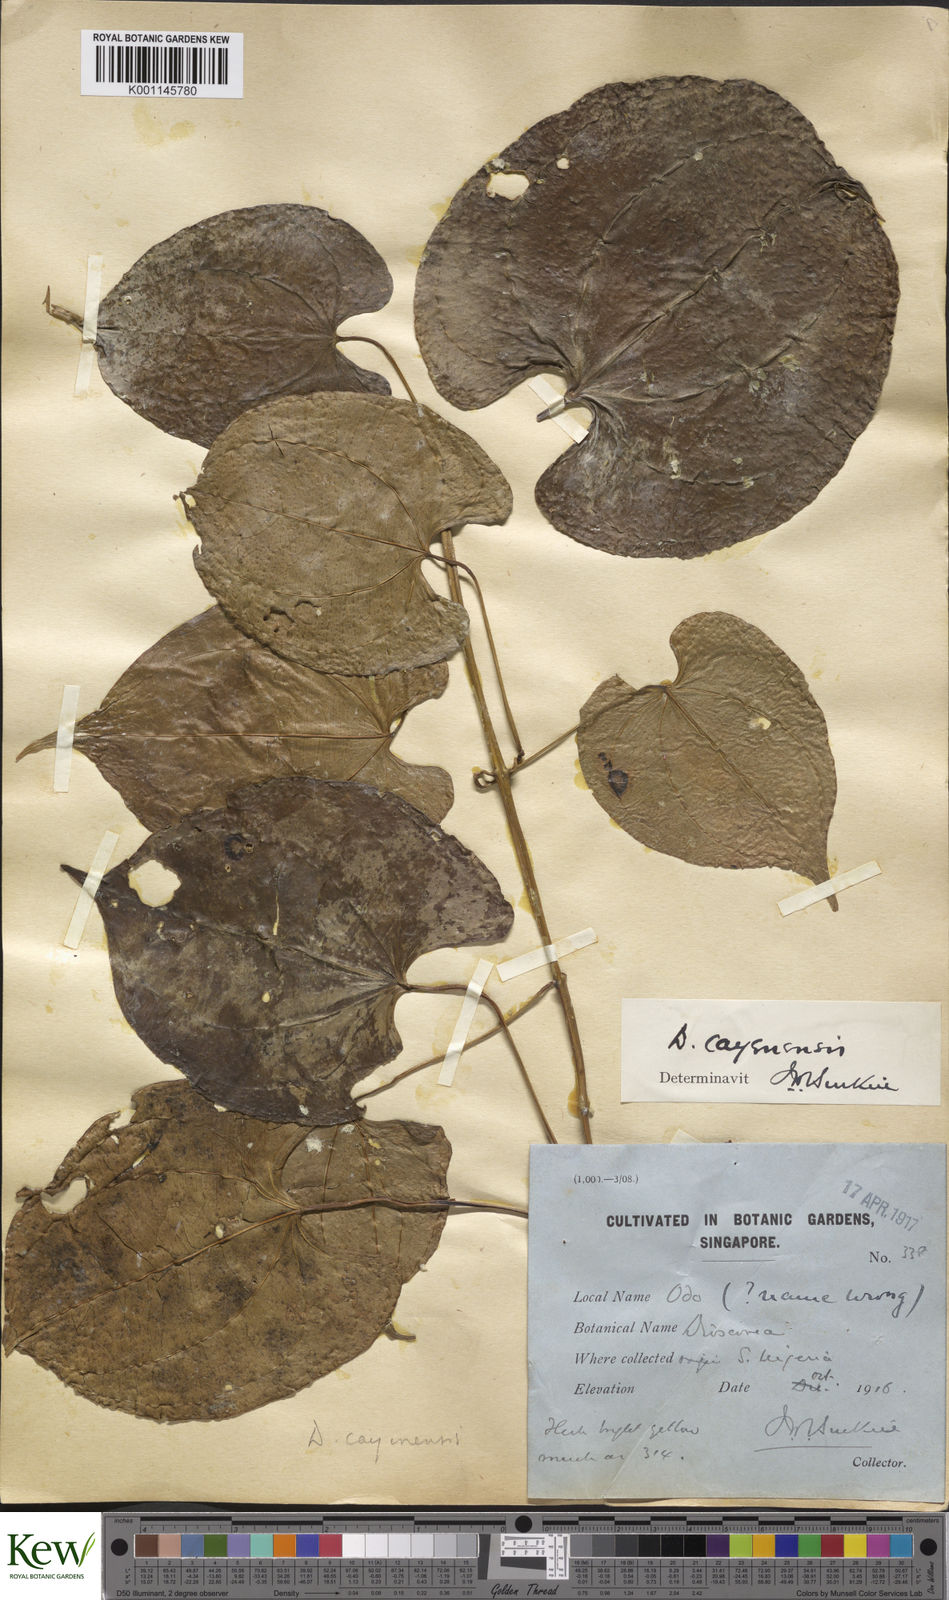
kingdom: Plantae
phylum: Tracheophyta
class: Liliopsida
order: Dioscoreales
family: Dioscoreaceae
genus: Dioscorea
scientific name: Dioscorea cayenensis
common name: Attoto yam
